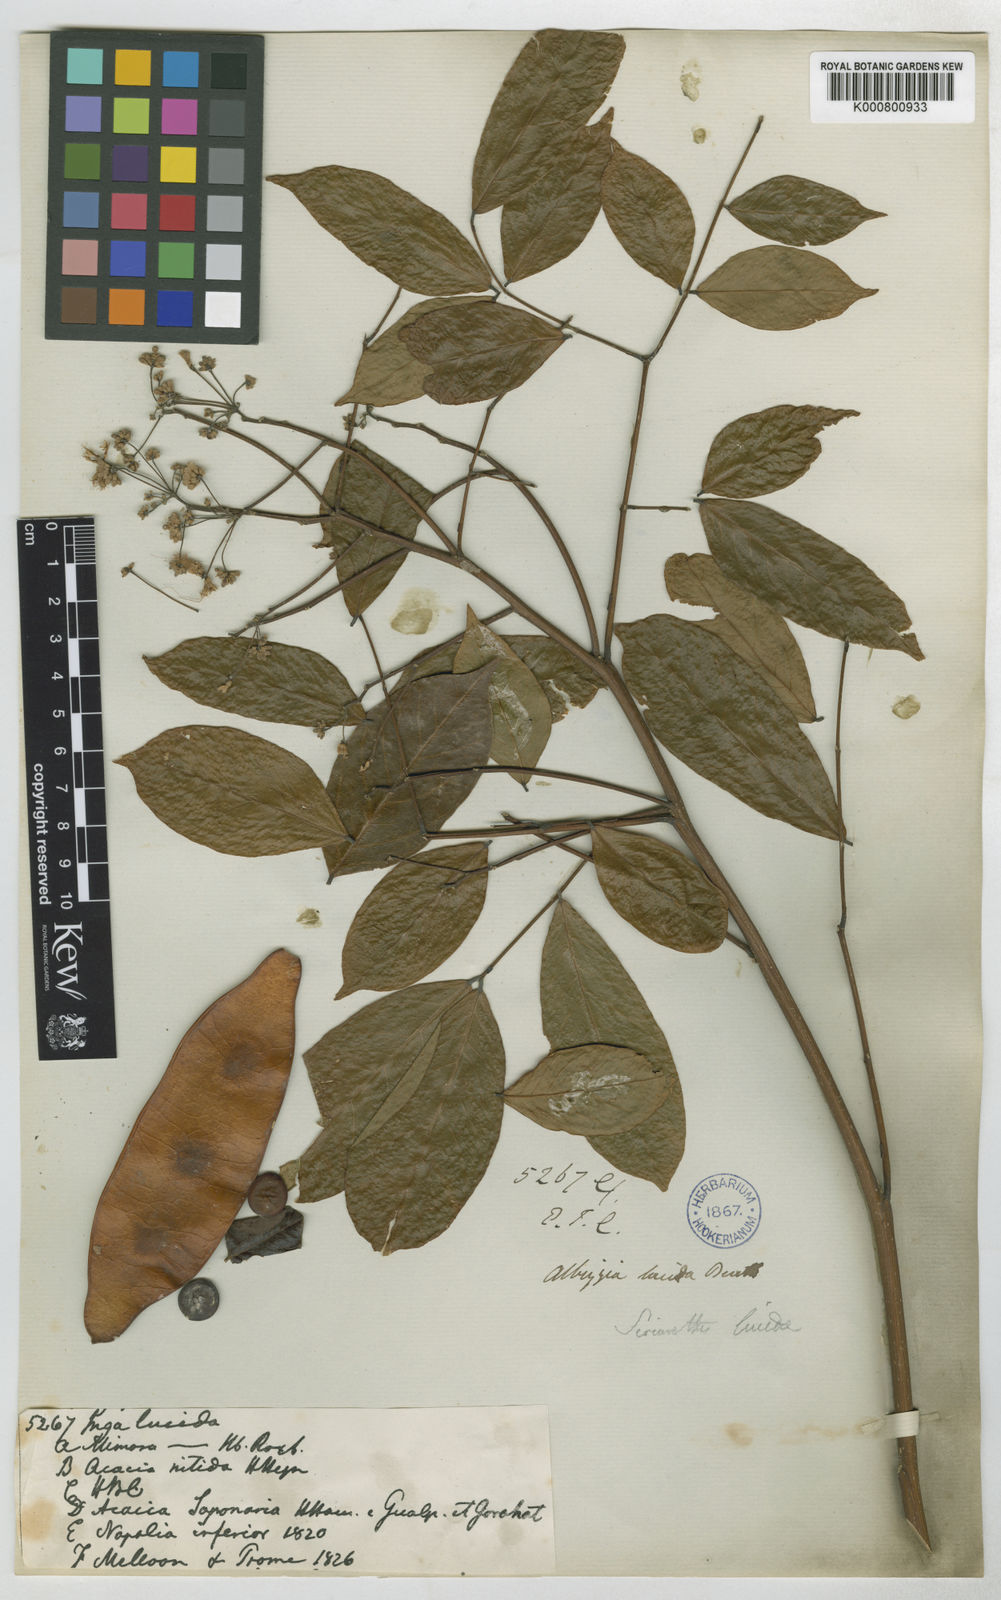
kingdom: Plantae
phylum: Tracheophyta
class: Magnoliopsida
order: Fabales
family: Fabaceae
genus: Albizia
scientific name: Albizia lucidior
